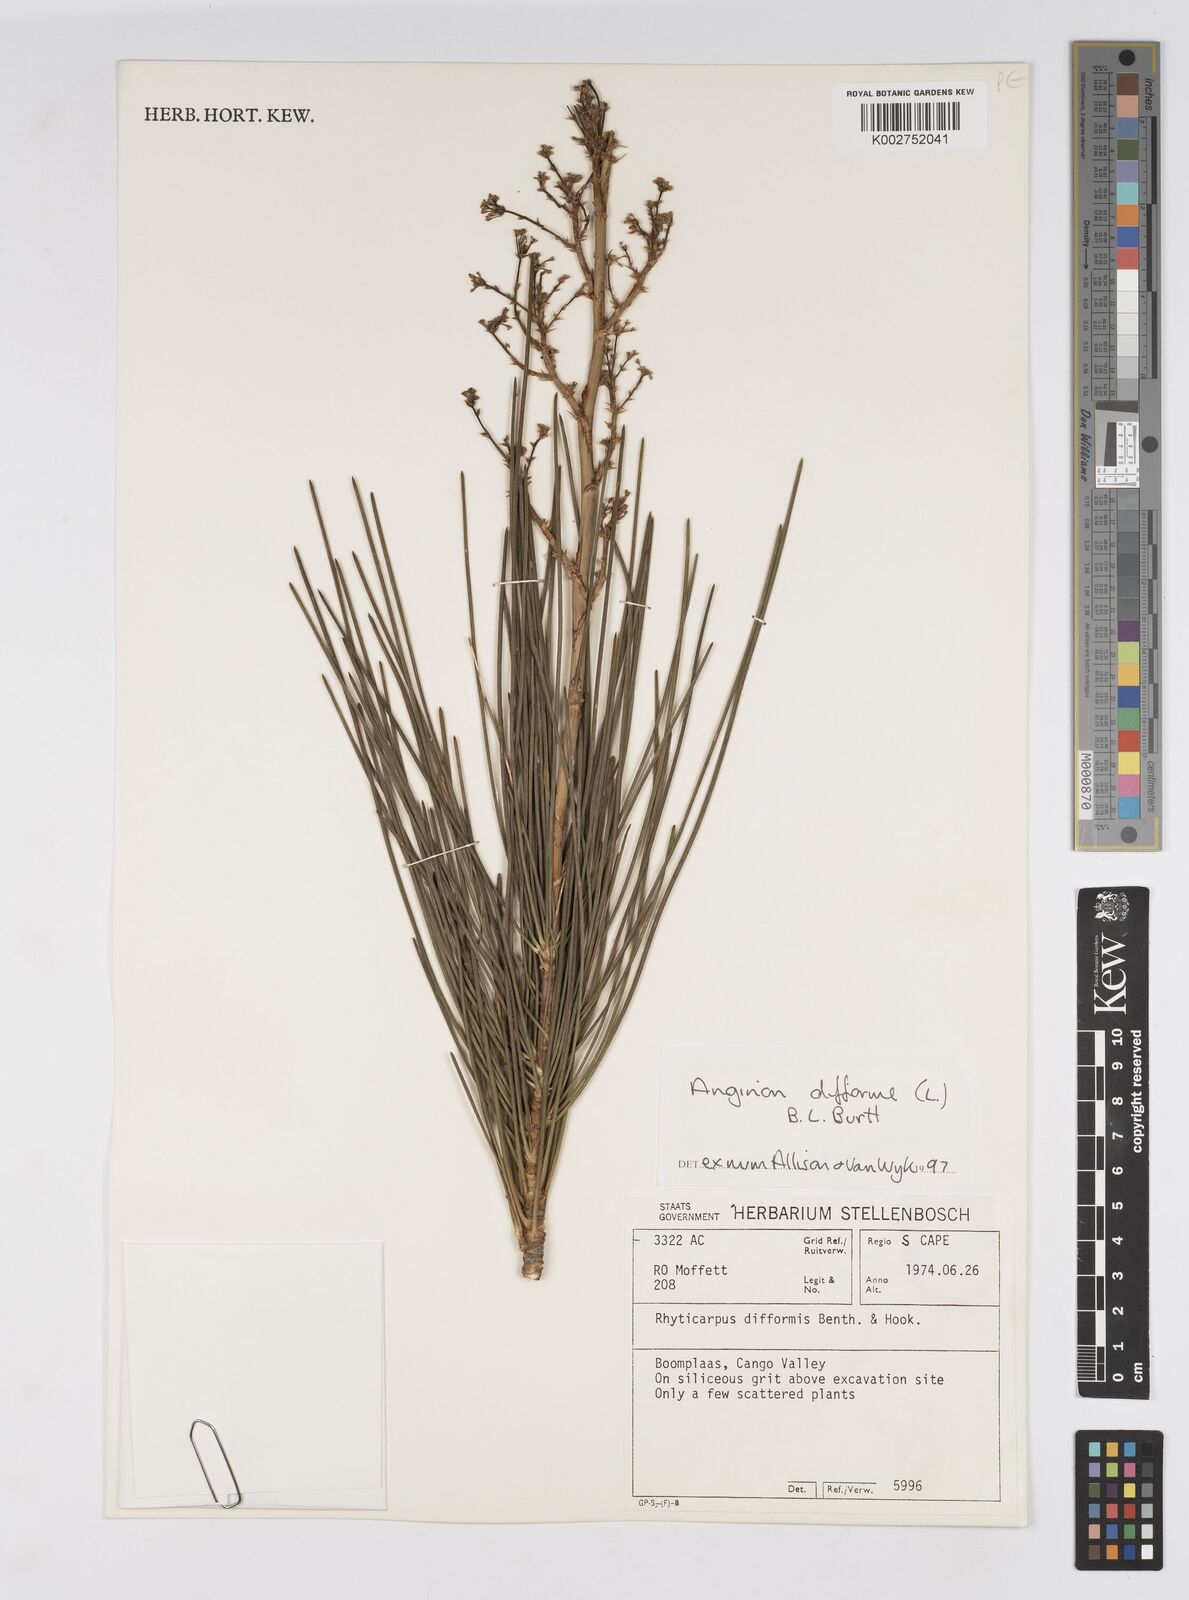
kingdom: Plantae
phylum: Tracheophyta
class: Magnoliopsida
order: Apiales
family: Apiaceae
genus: Anginon
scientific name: Anginon difforme
